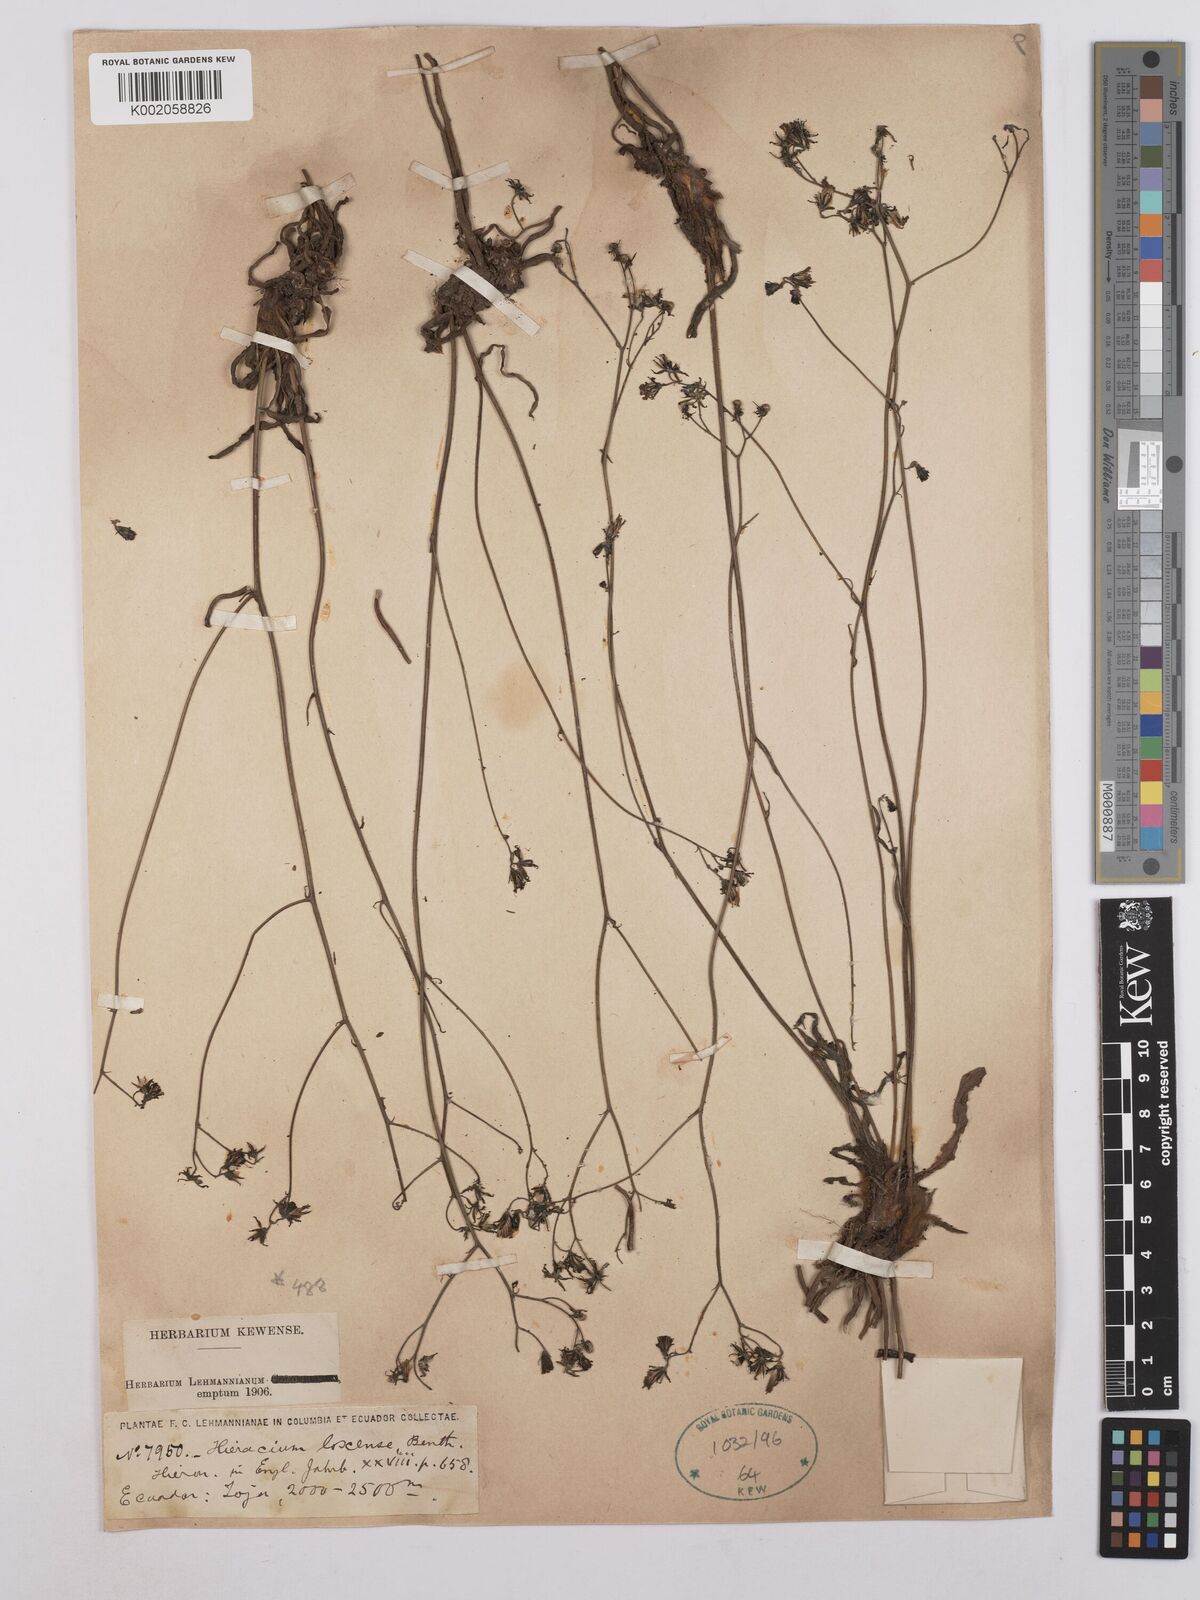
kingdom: Plantae
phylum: Tracheophyta
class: Magnoliopsida
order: Asterales
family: Asteraceae
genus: Hieracium
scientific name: Hieracium lagopus
